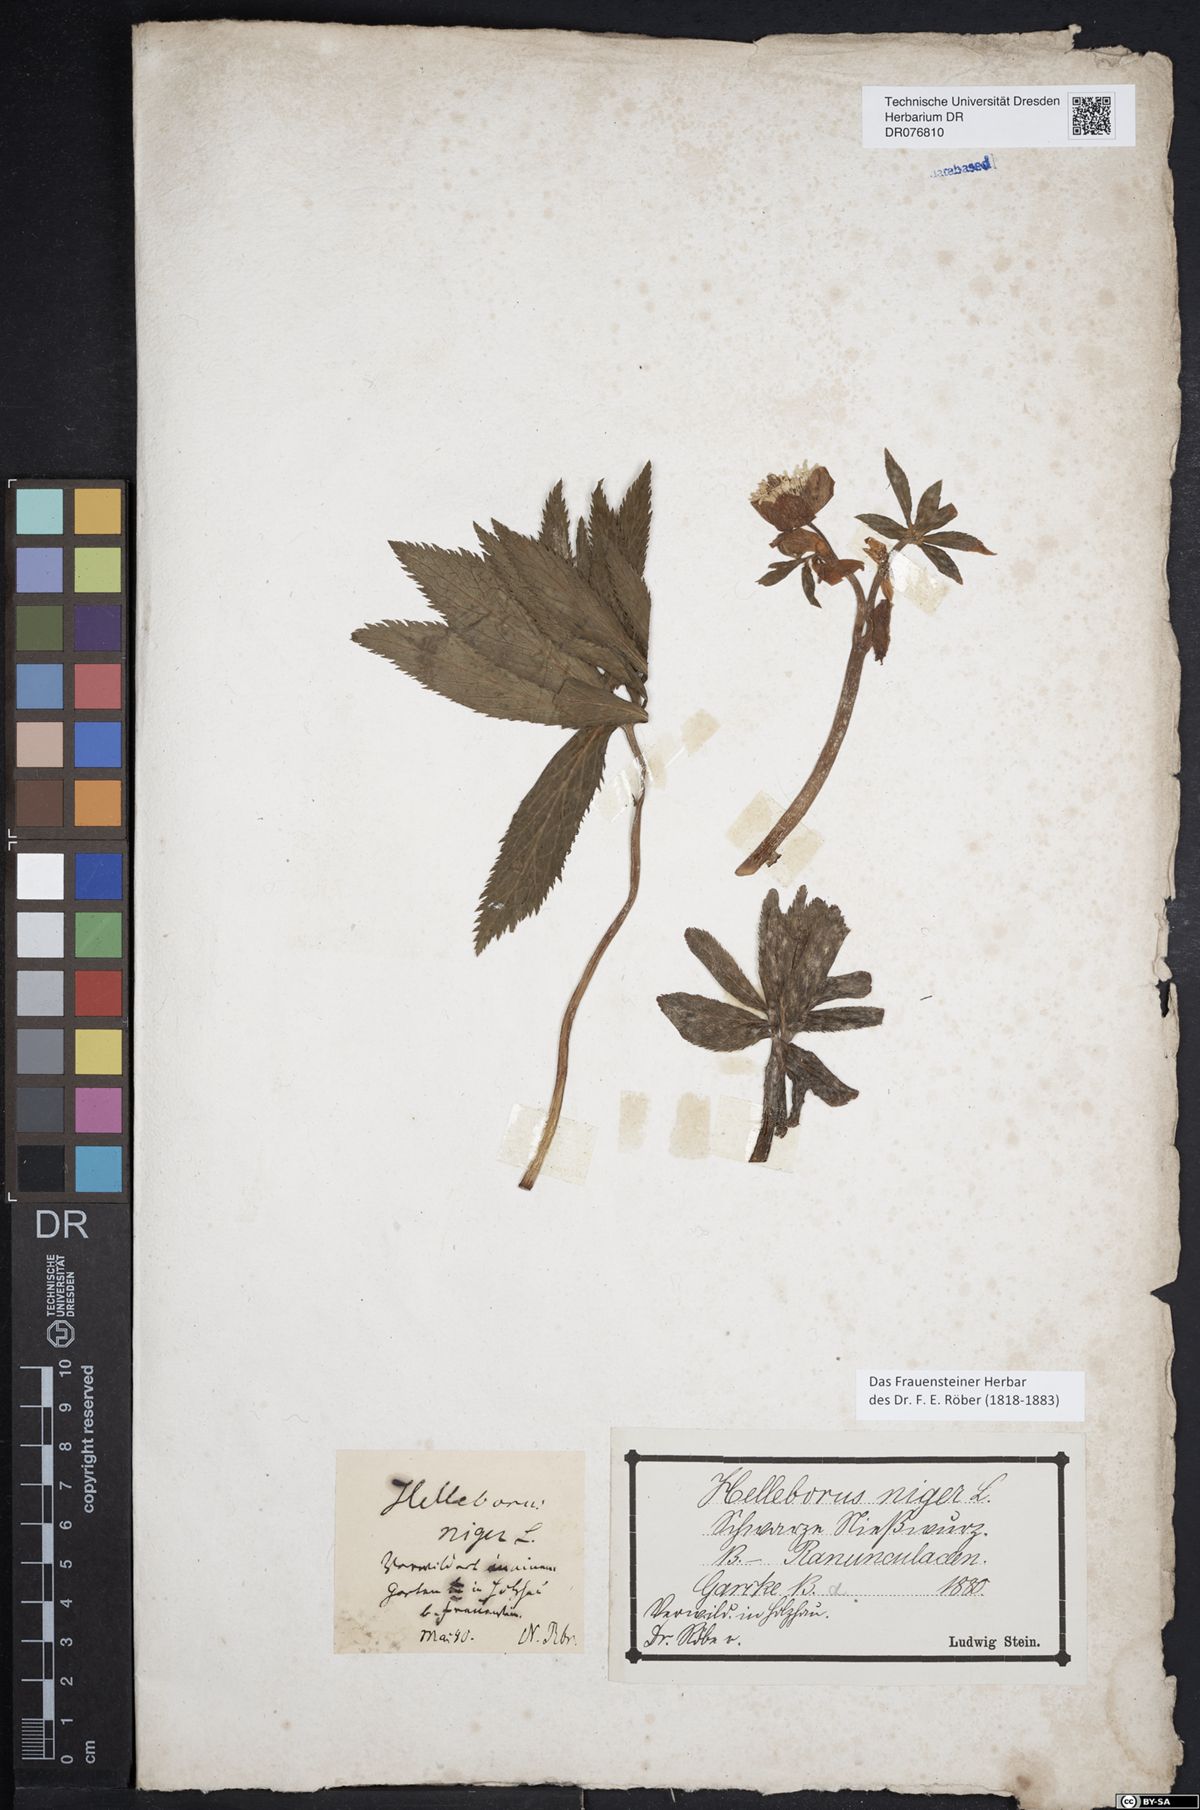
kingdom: Plantae
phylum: Tracheophyta
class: Magnoliopsida
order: Ranunculales
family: Ranunculaceae
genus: Helleborus
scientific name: Helleborus niger
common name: Black hellebore
